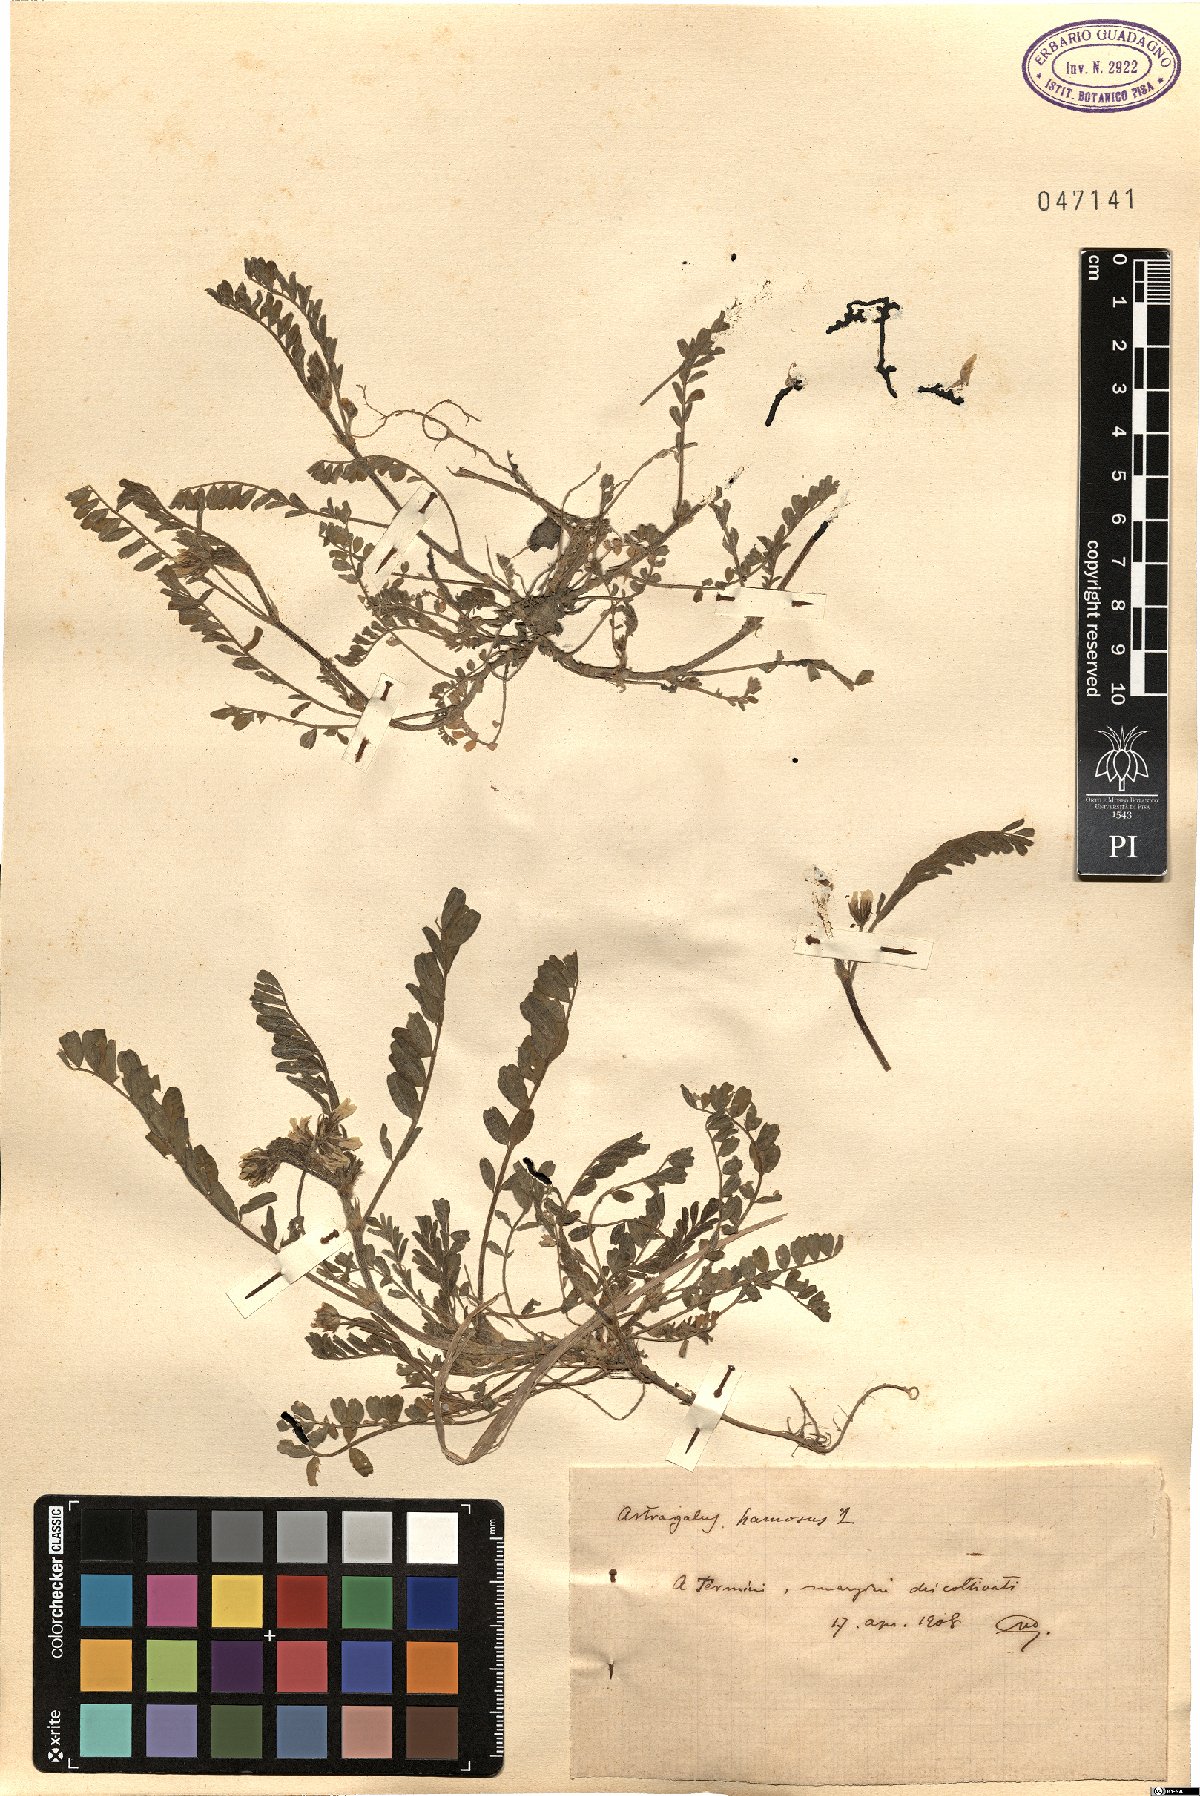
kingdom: Plantae
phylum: Tracheophyta
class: Magnoliopsida
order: Fabales
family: Fabaceae
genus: Astragalus
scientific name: Astragalus hamosus
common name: European milkvetch
